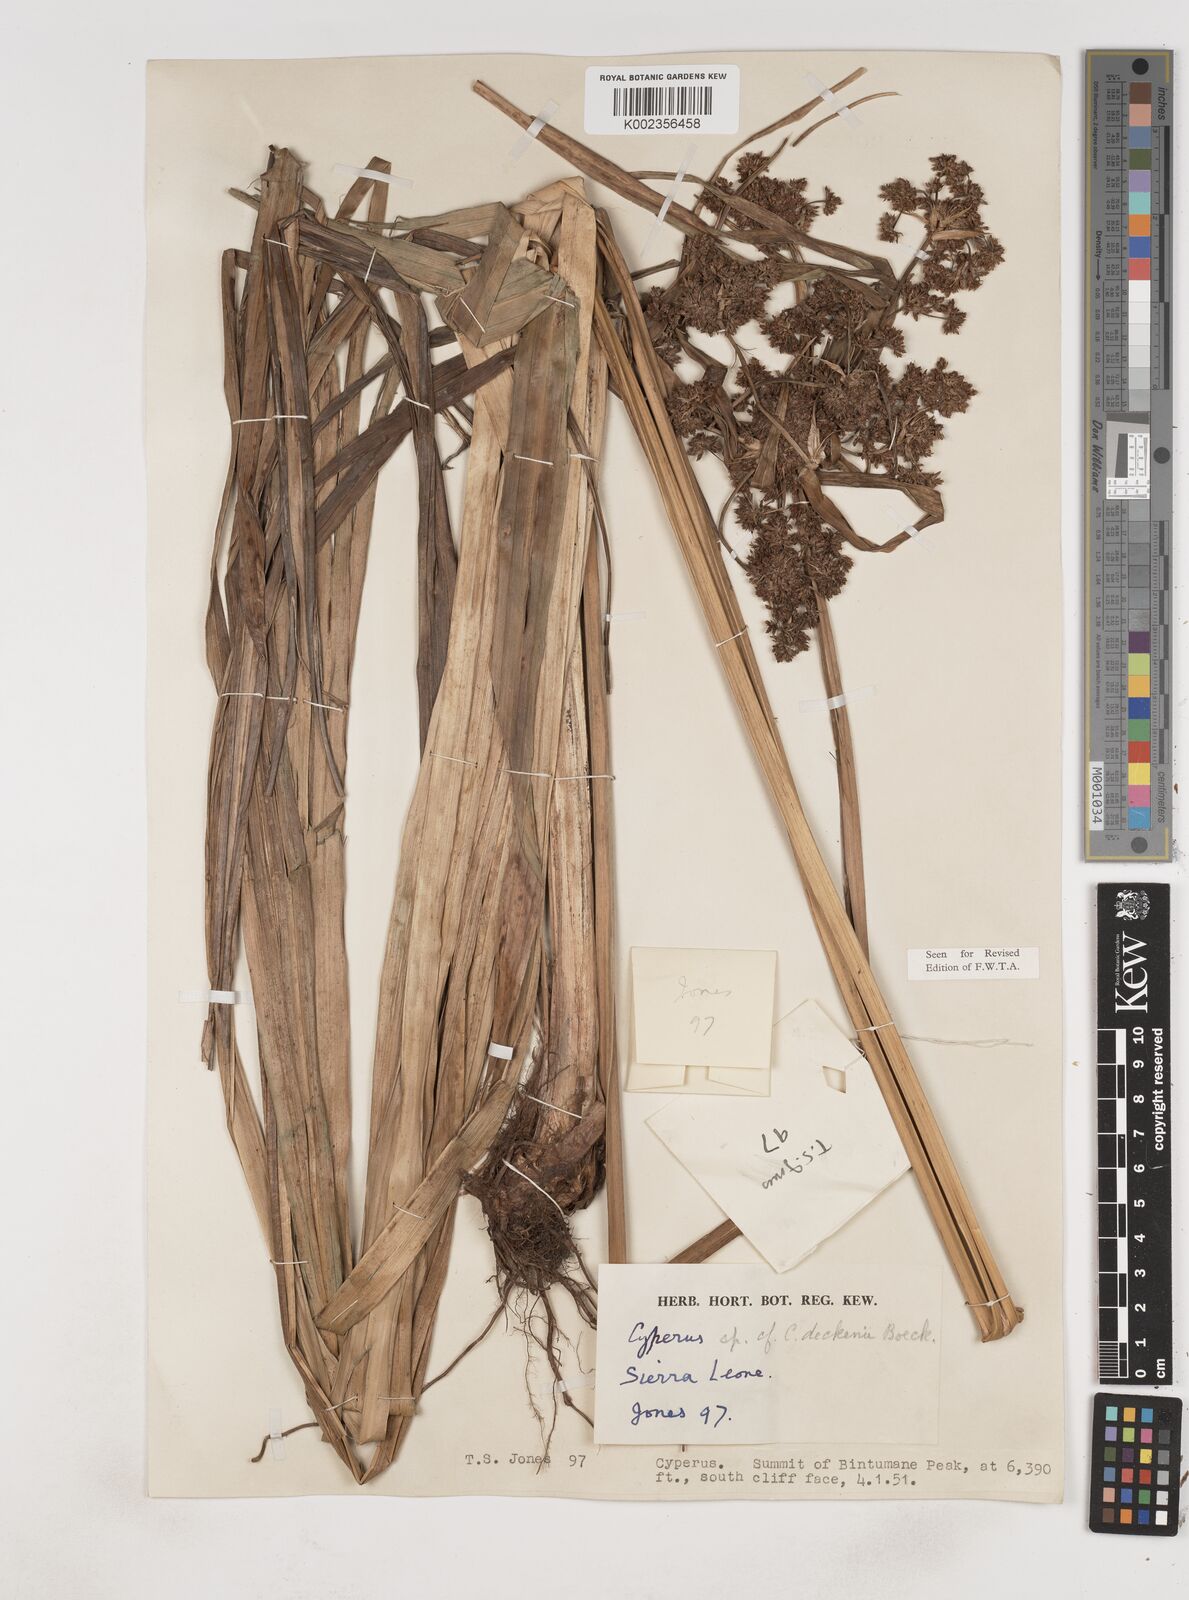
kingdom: Plantae
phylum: Tracheophyta
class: Liliopsida
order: Poales
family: Cyperaceae
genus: Cyperus
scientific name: Cyperus baronii
